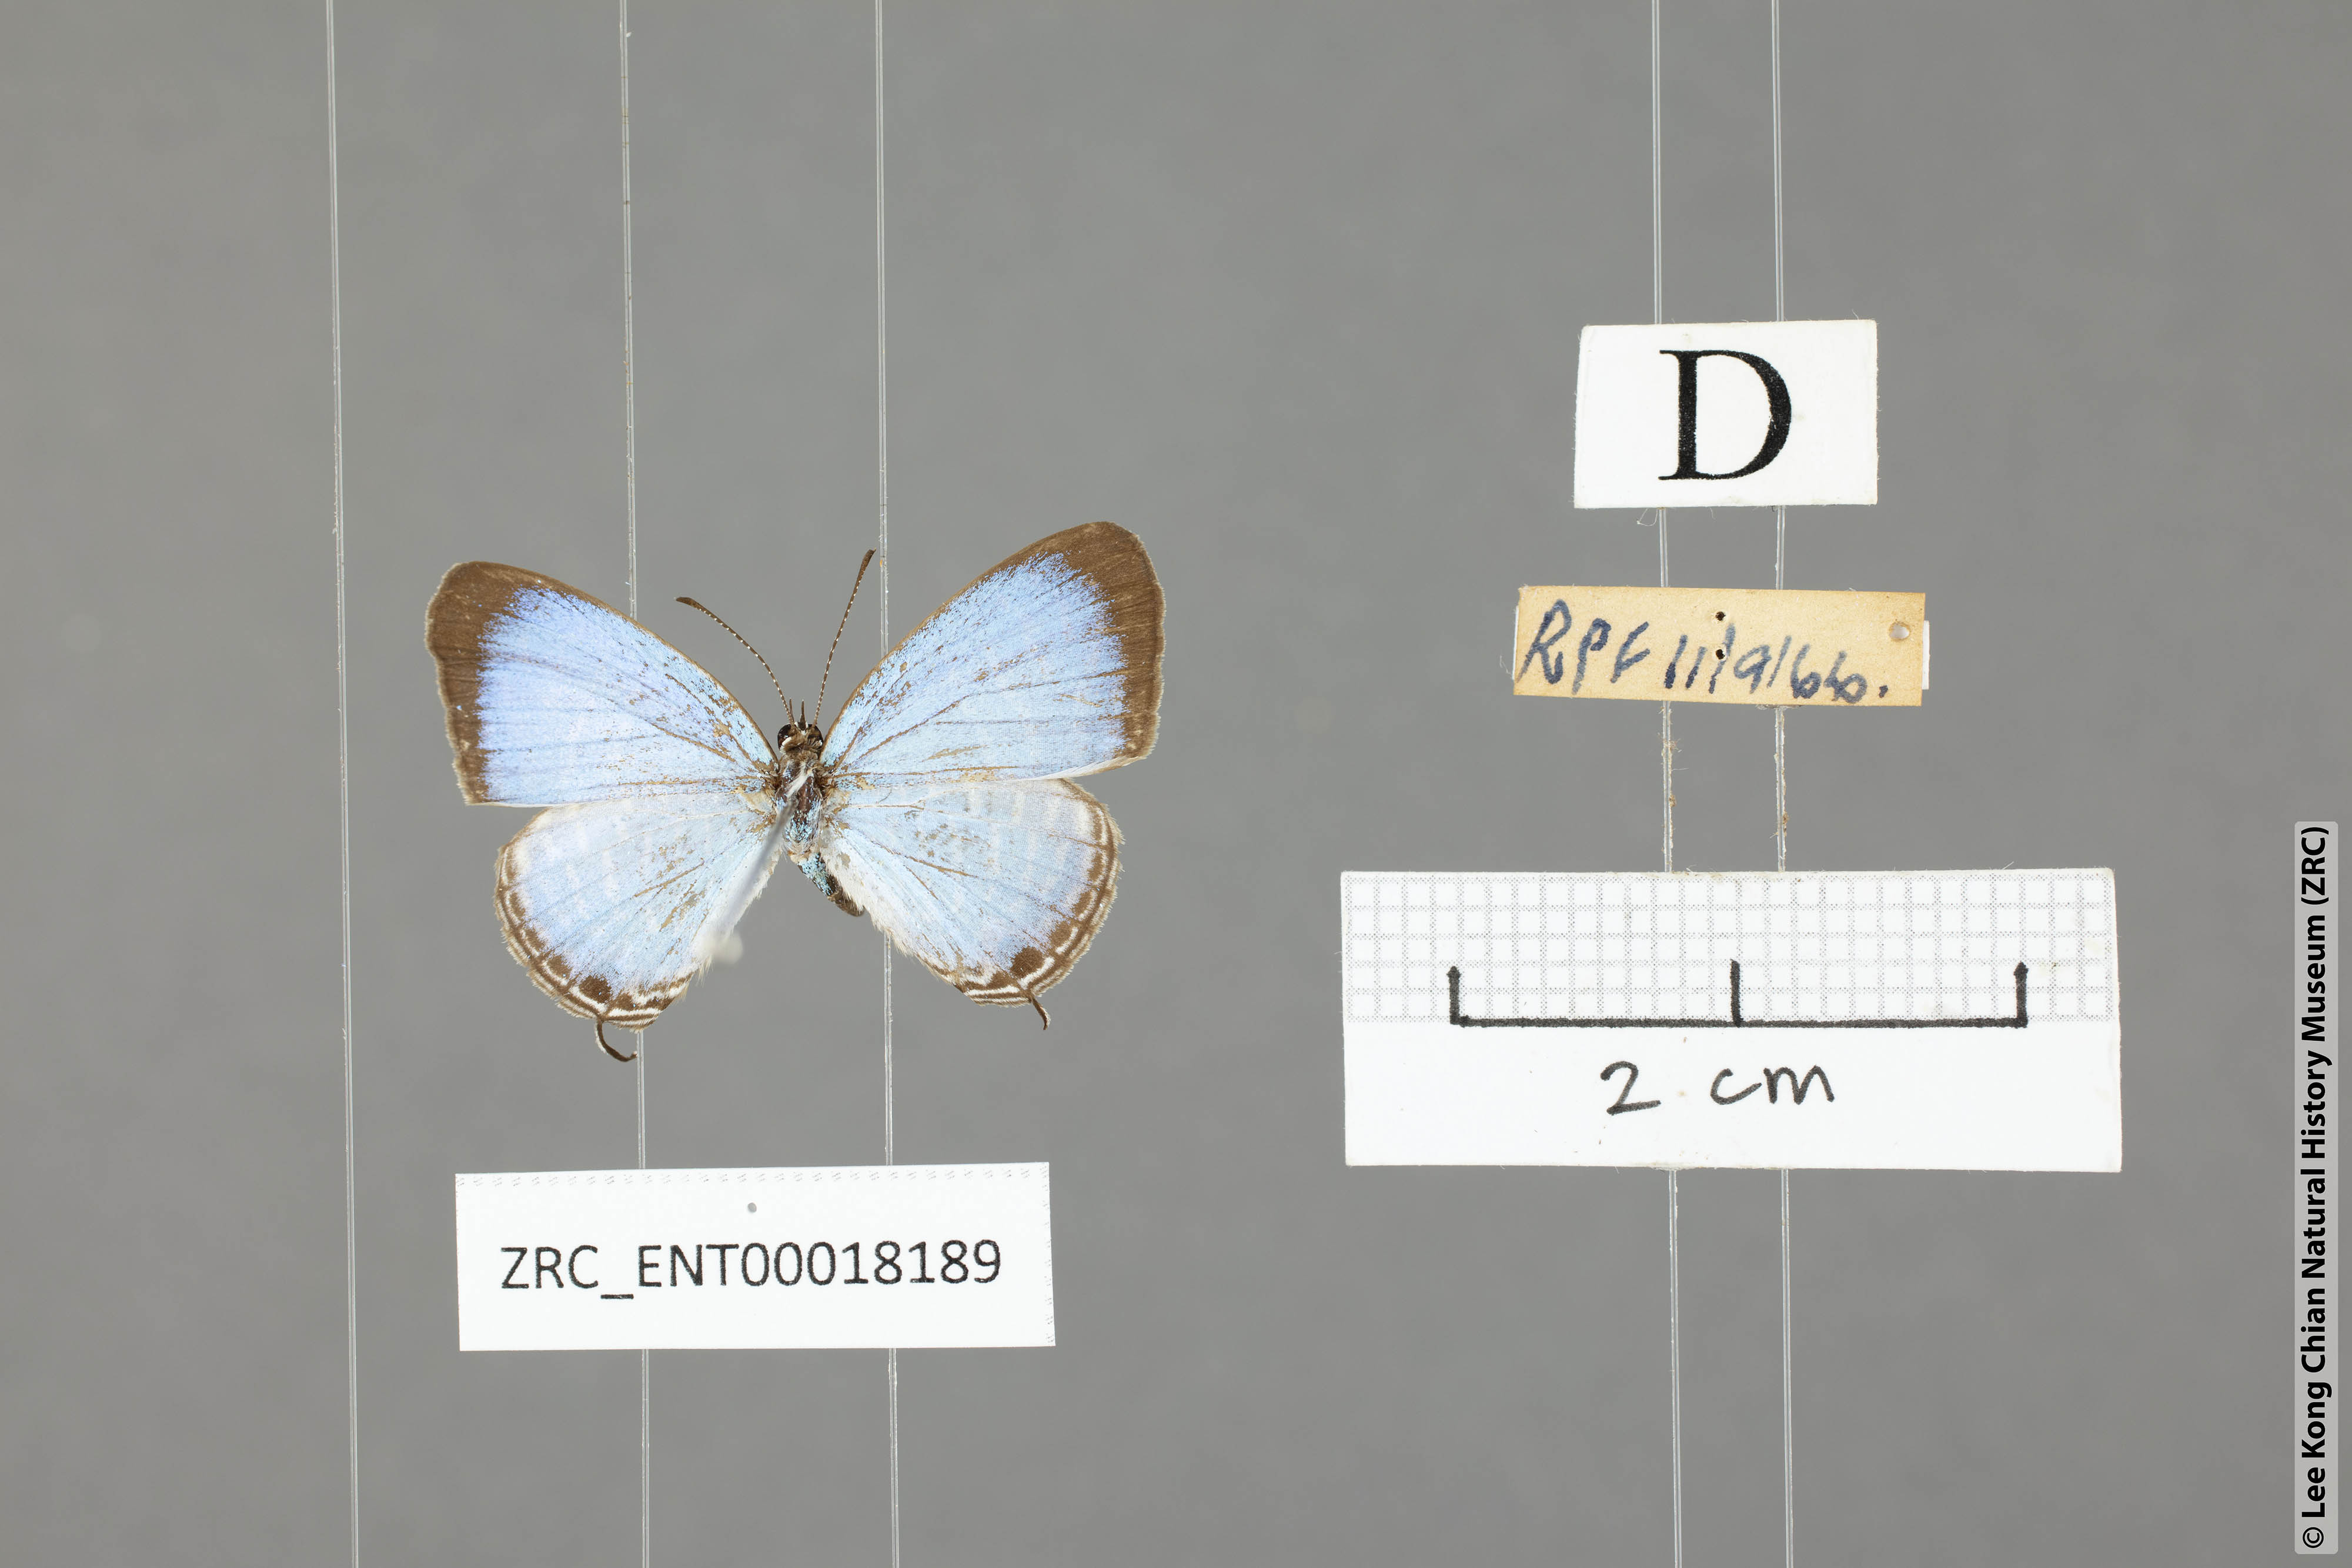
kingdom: Animalia
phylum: Arthropoda
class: Insecta
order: Lepidoptera
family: Lycaenidae
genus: Jamides
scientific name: Jamides talinga
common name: Lesser cerulean
